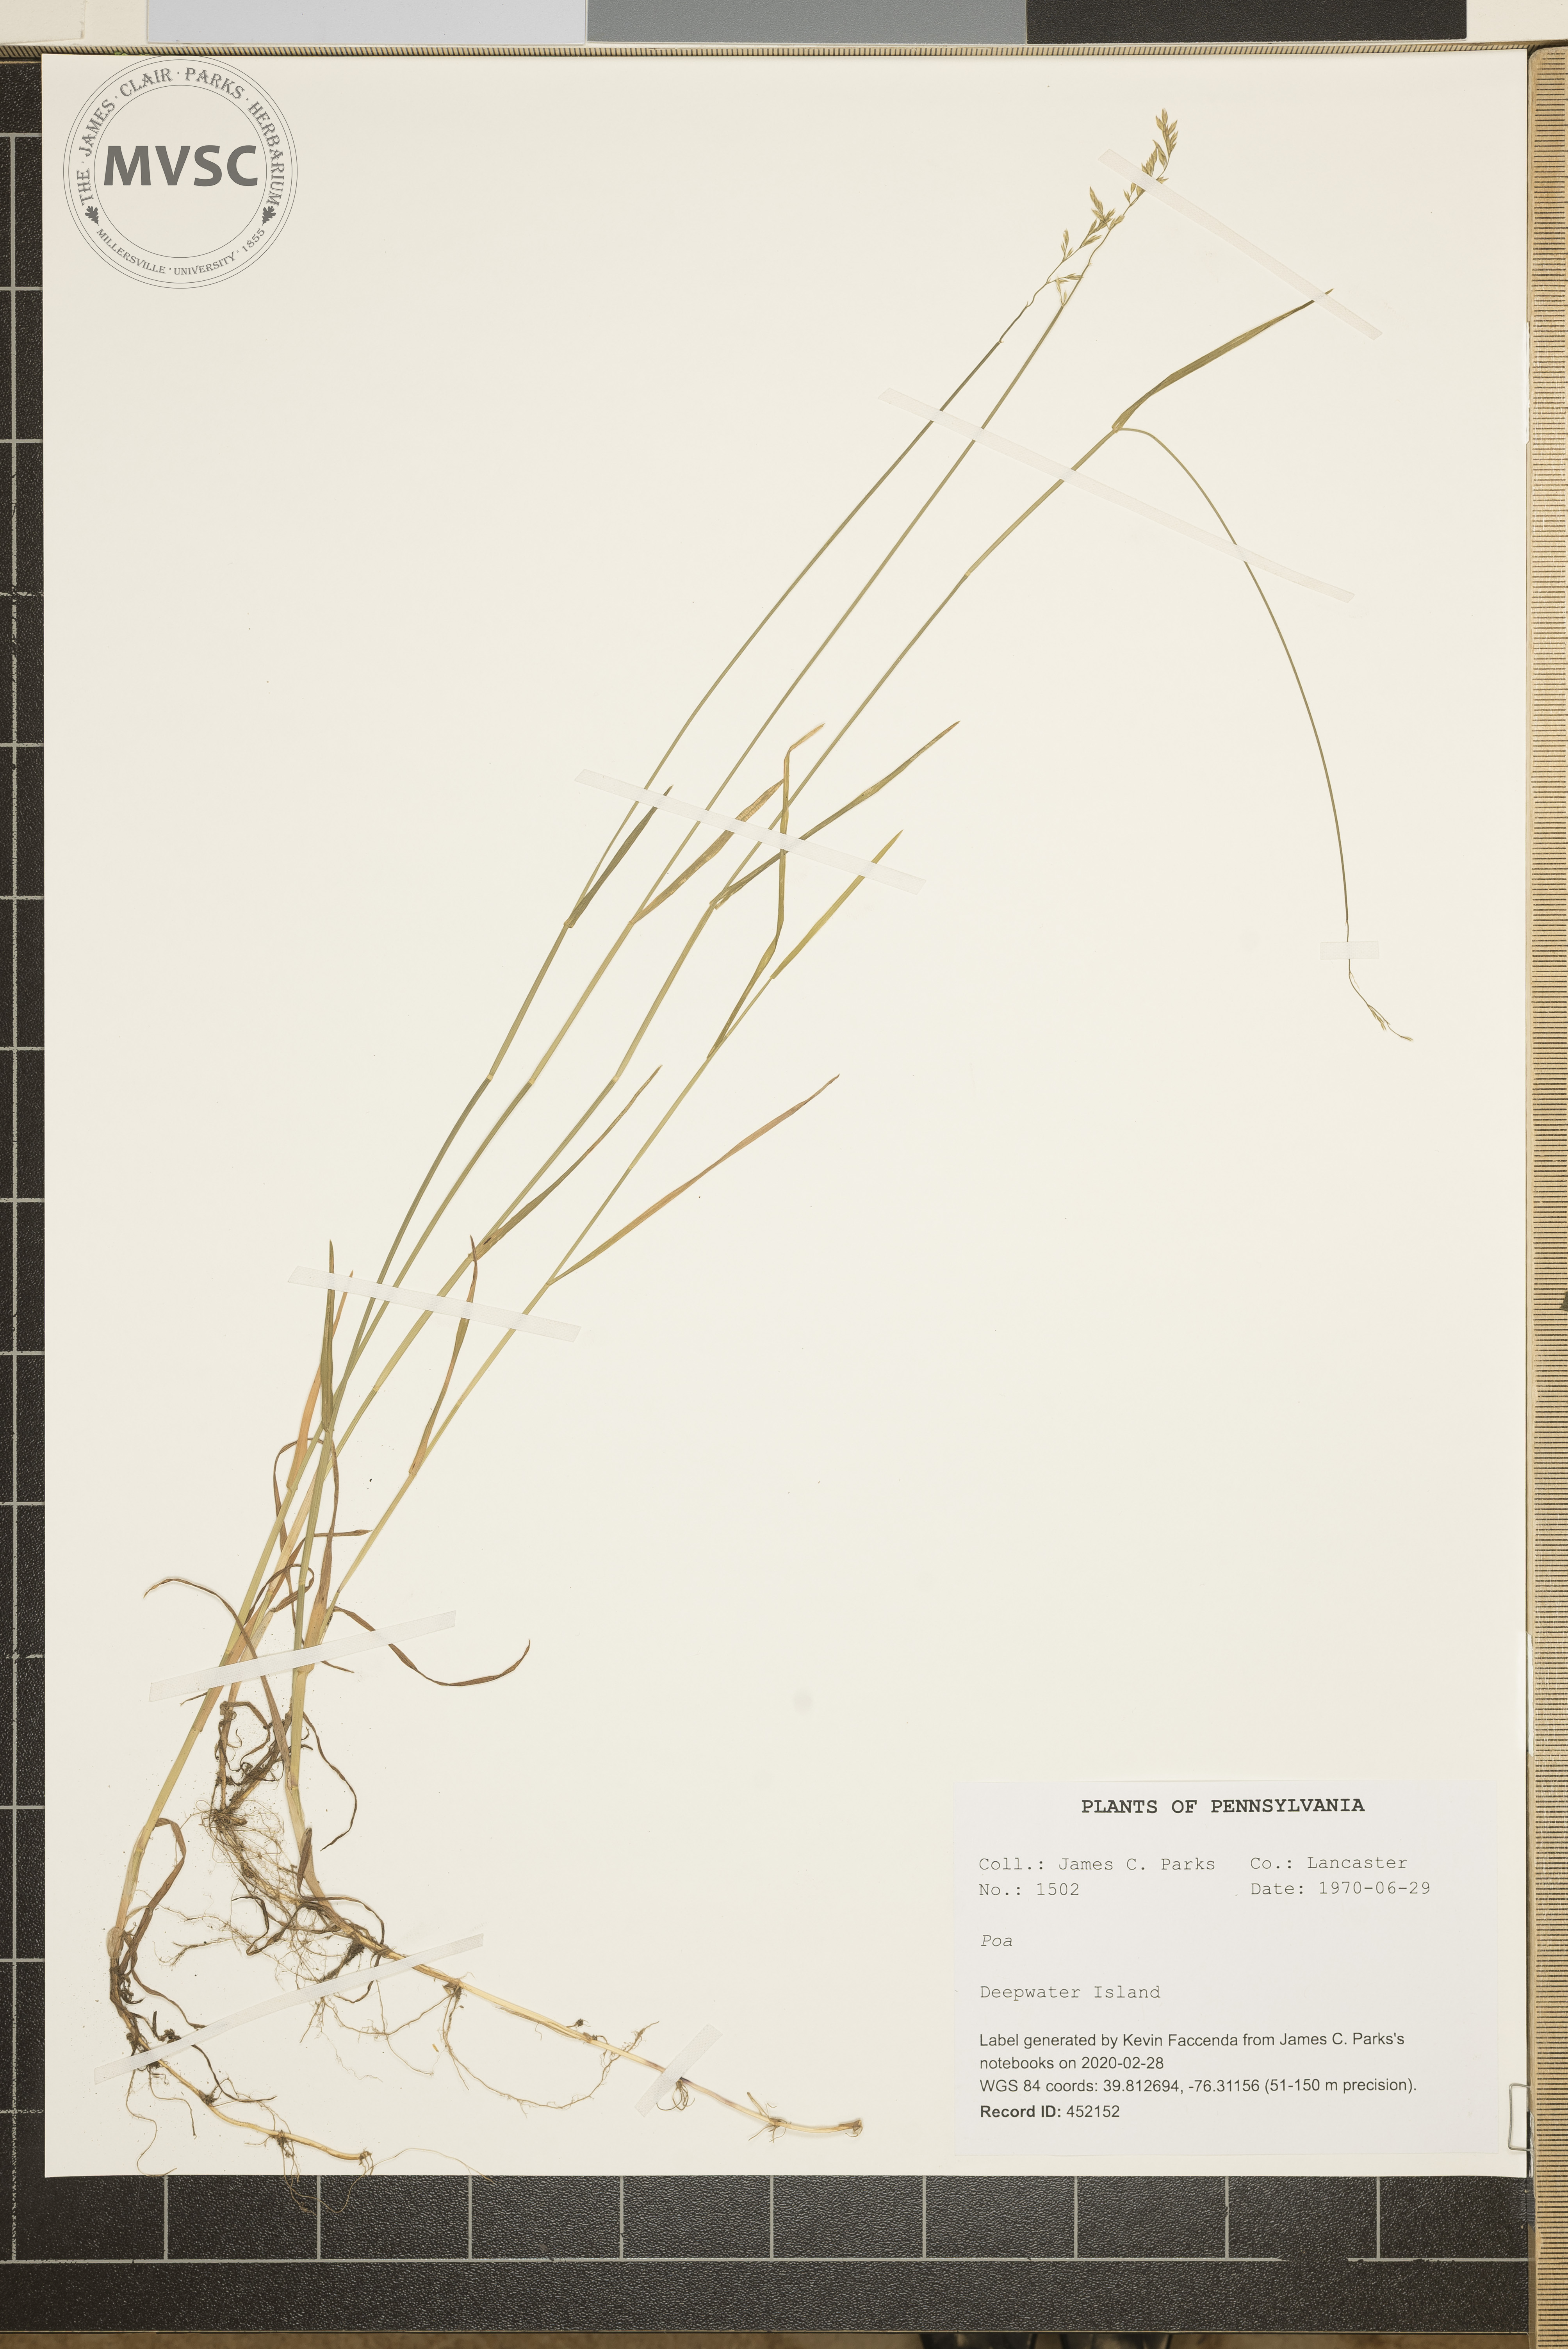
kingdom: Plantae
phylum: Tracheophyta
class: Liliopsida
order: Poales
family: Poaceae
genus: Poa
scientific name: Poa
